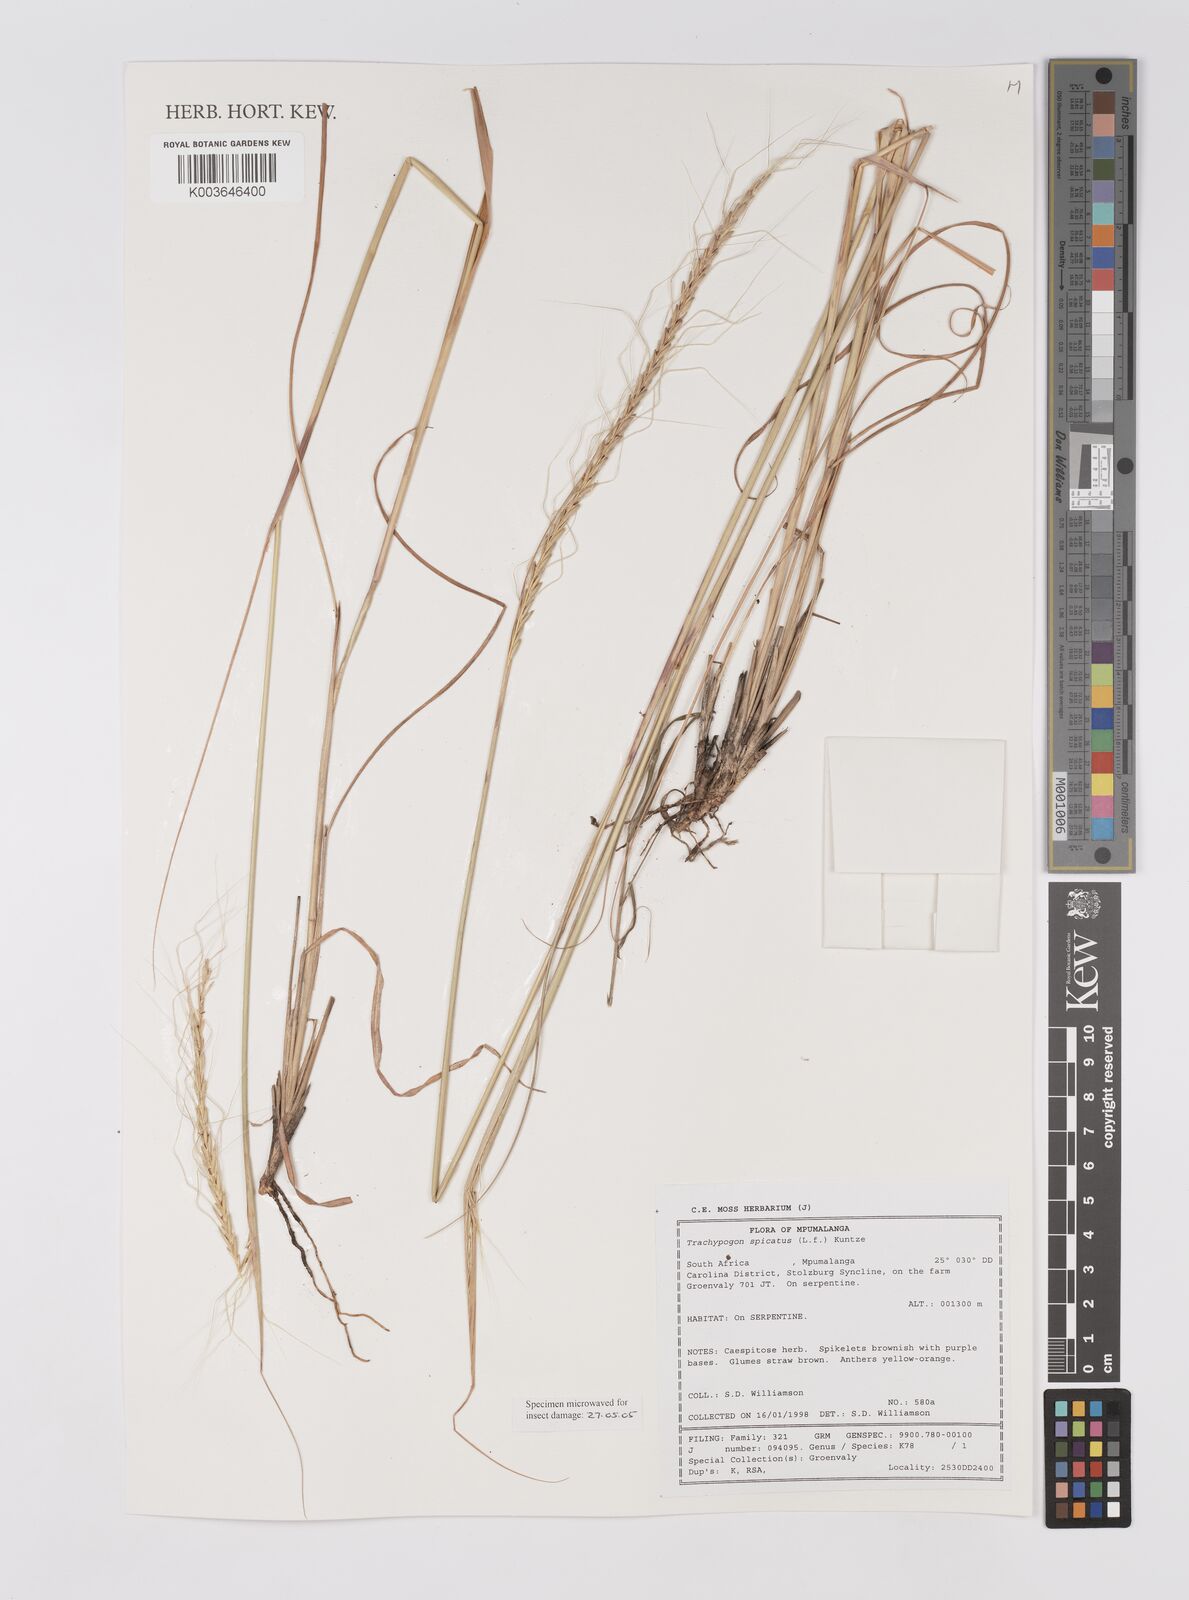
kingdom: Plantae
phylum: Tracheophyta
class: Liliopsida
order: Poales
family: Poaceae
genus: Trachypogon
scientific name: Trachypogon spicatus
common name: Crinkle-awn
